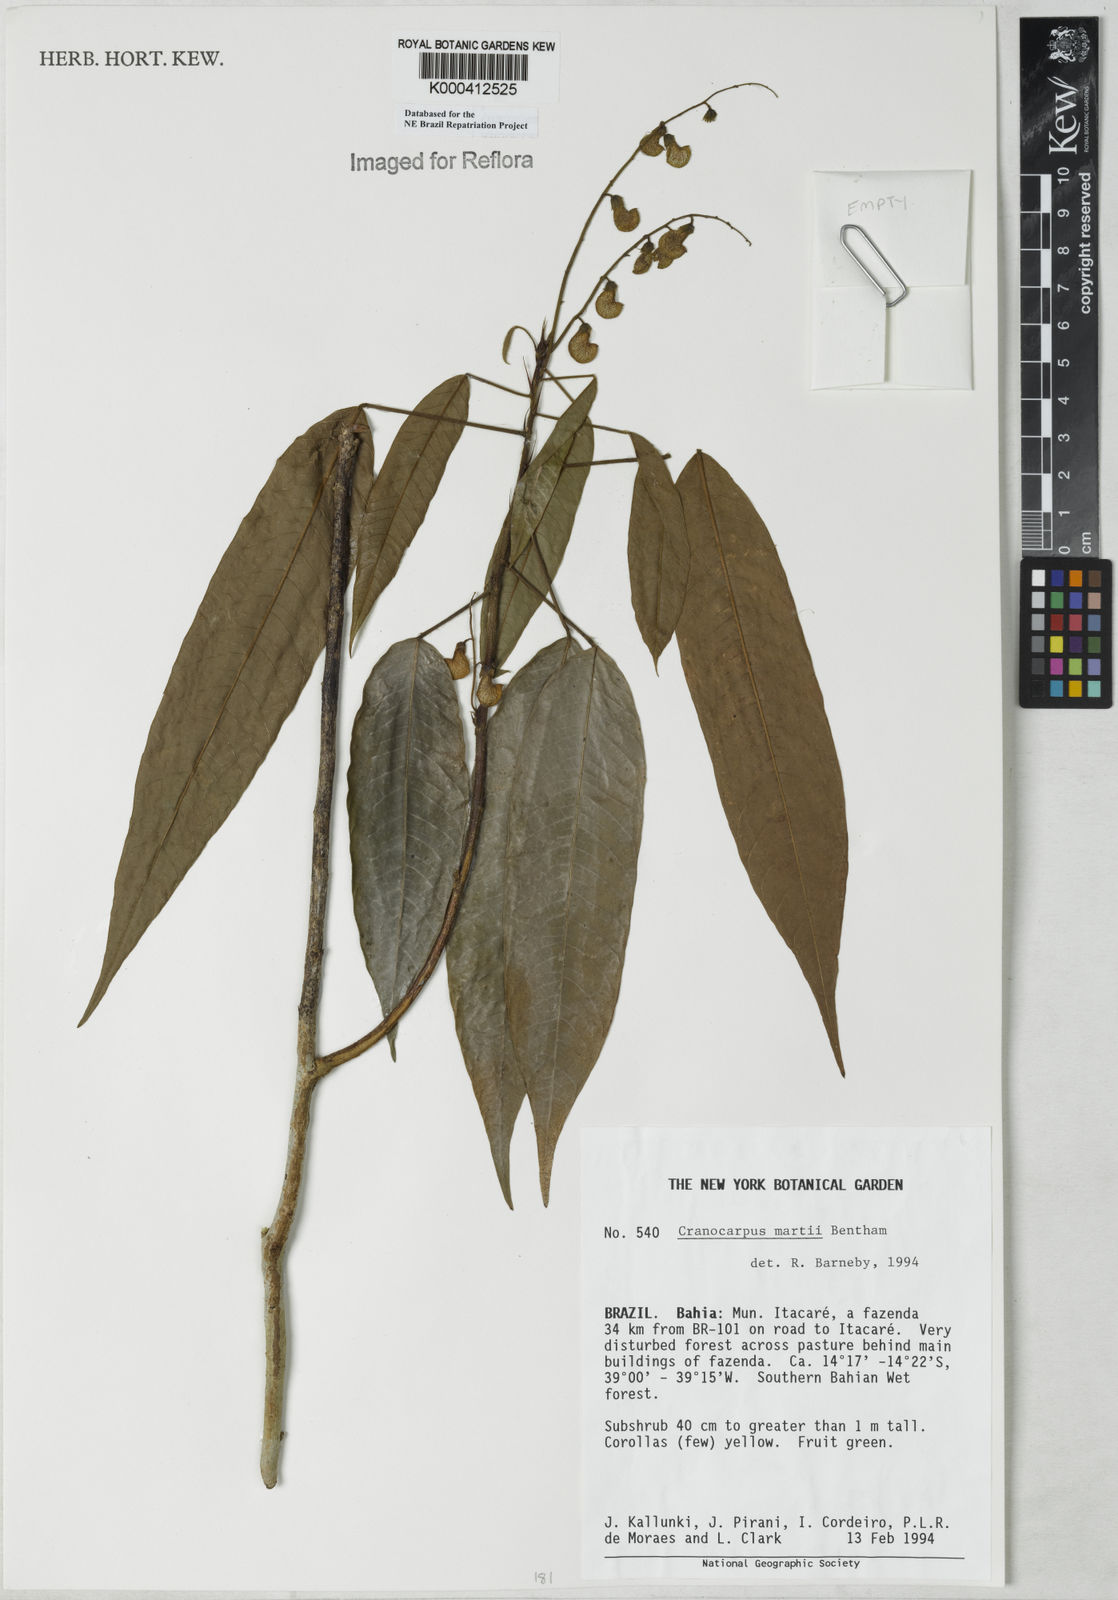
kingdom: Plantae
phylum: Tracheophyta
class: Magnoliopsida
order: Fabales
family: Fabaceae
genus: Cranocarpus
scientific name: Cranocarpus martii
